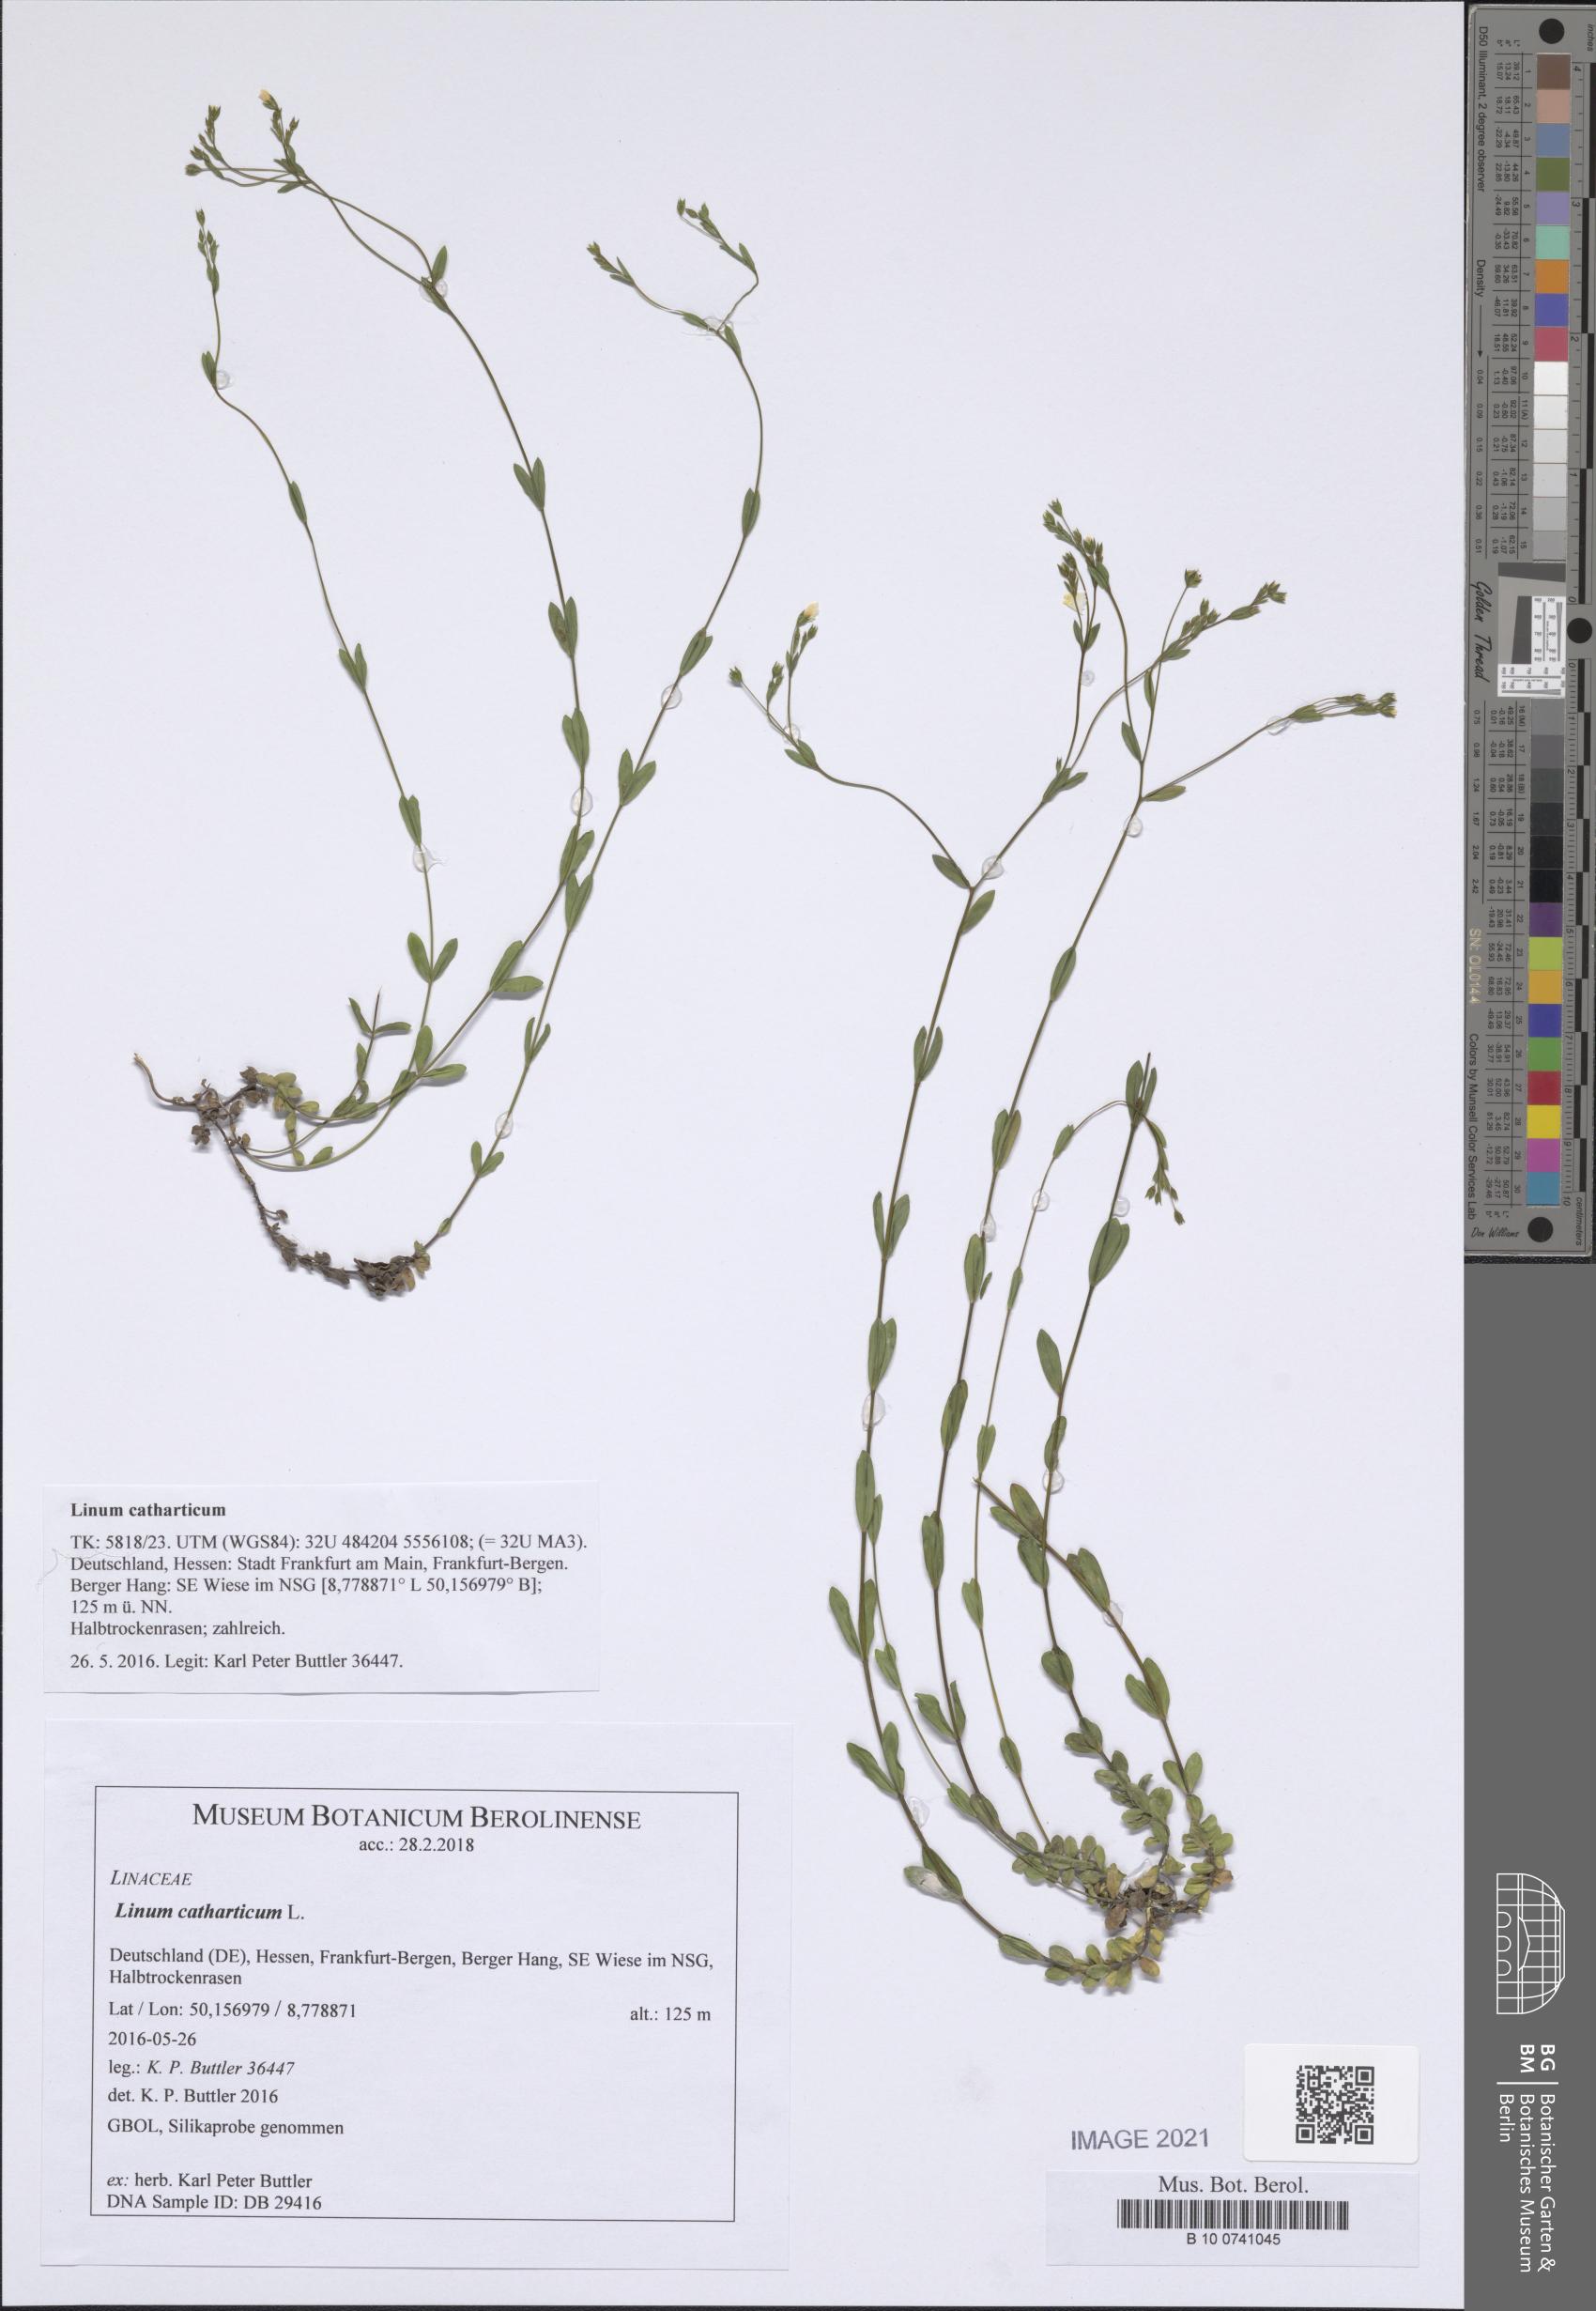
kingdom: Plantae
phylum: Tracheophyta
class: Magnoliopsida
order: Malpighiales
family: Linaceae
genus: Linum
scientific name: Linum catharticum
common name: Fairy flax
